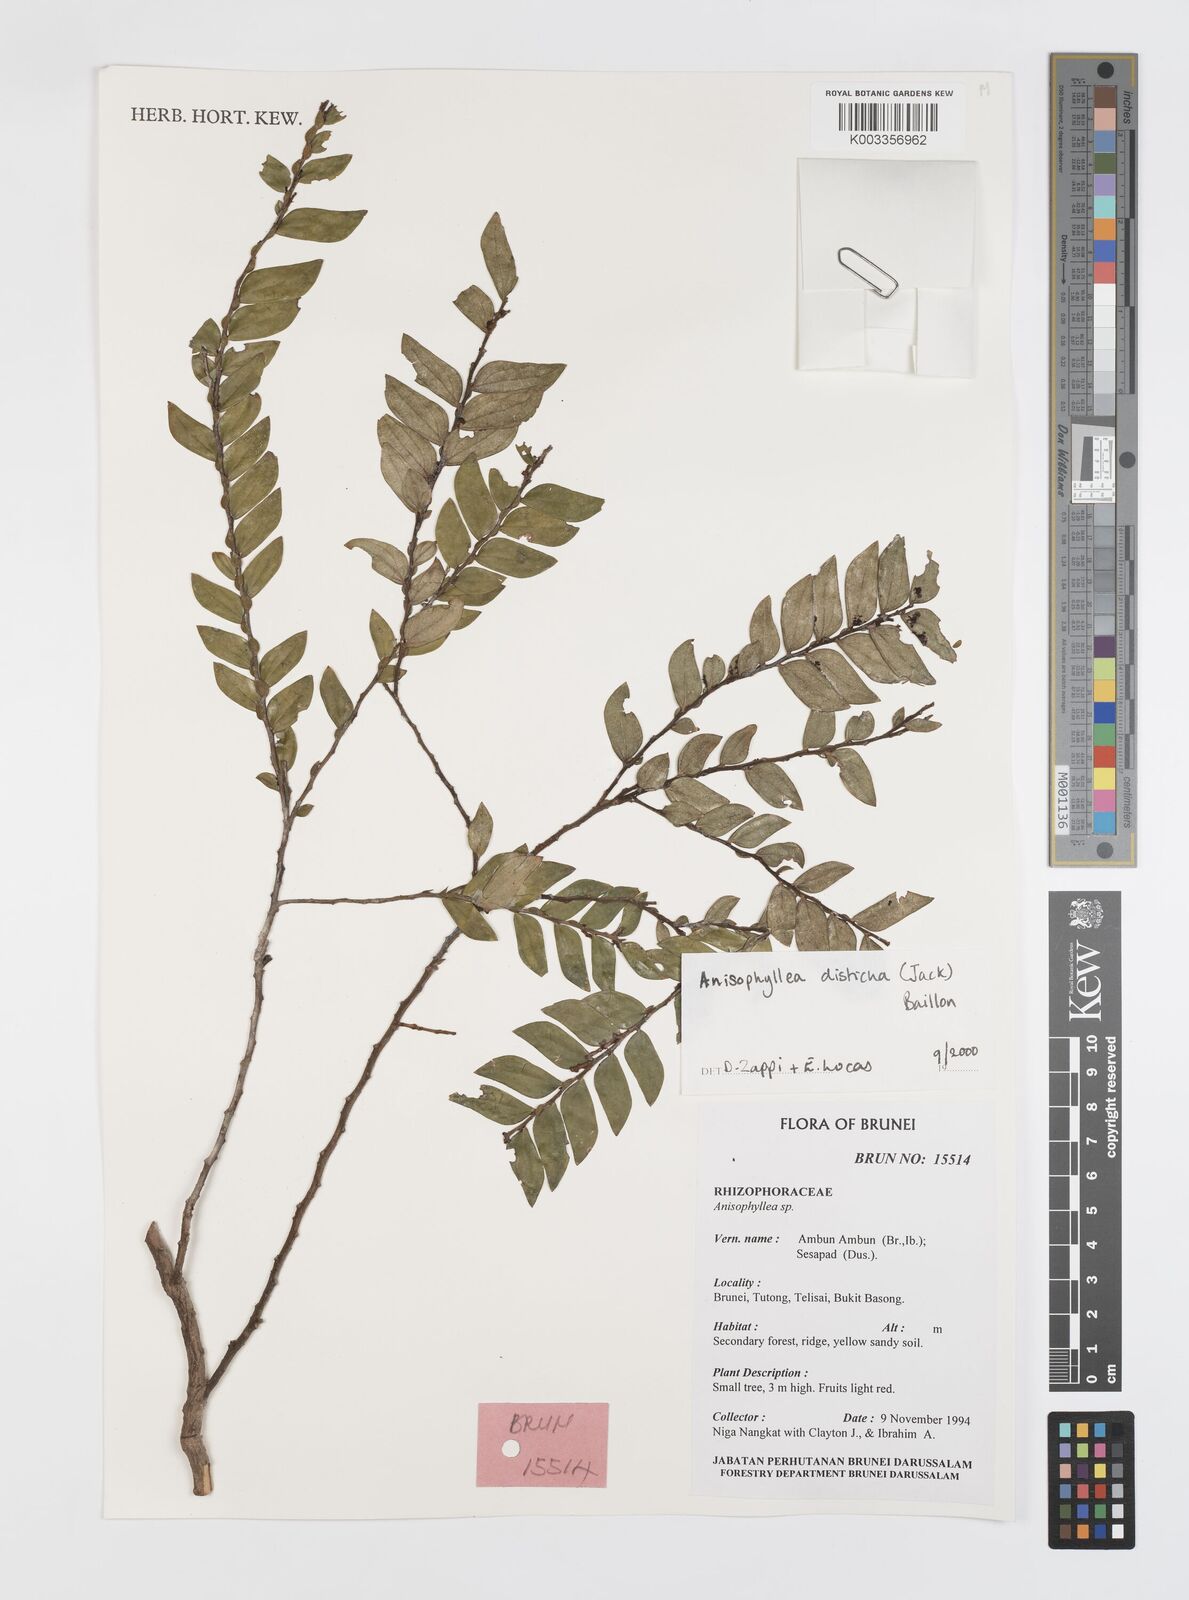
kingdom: Plantae
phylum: Tracheophyta
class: Magnoliopsida
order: Cucurbitales
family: Anisophylleaceae
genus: Anisophyllea
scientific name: Anisophyllea disticha
